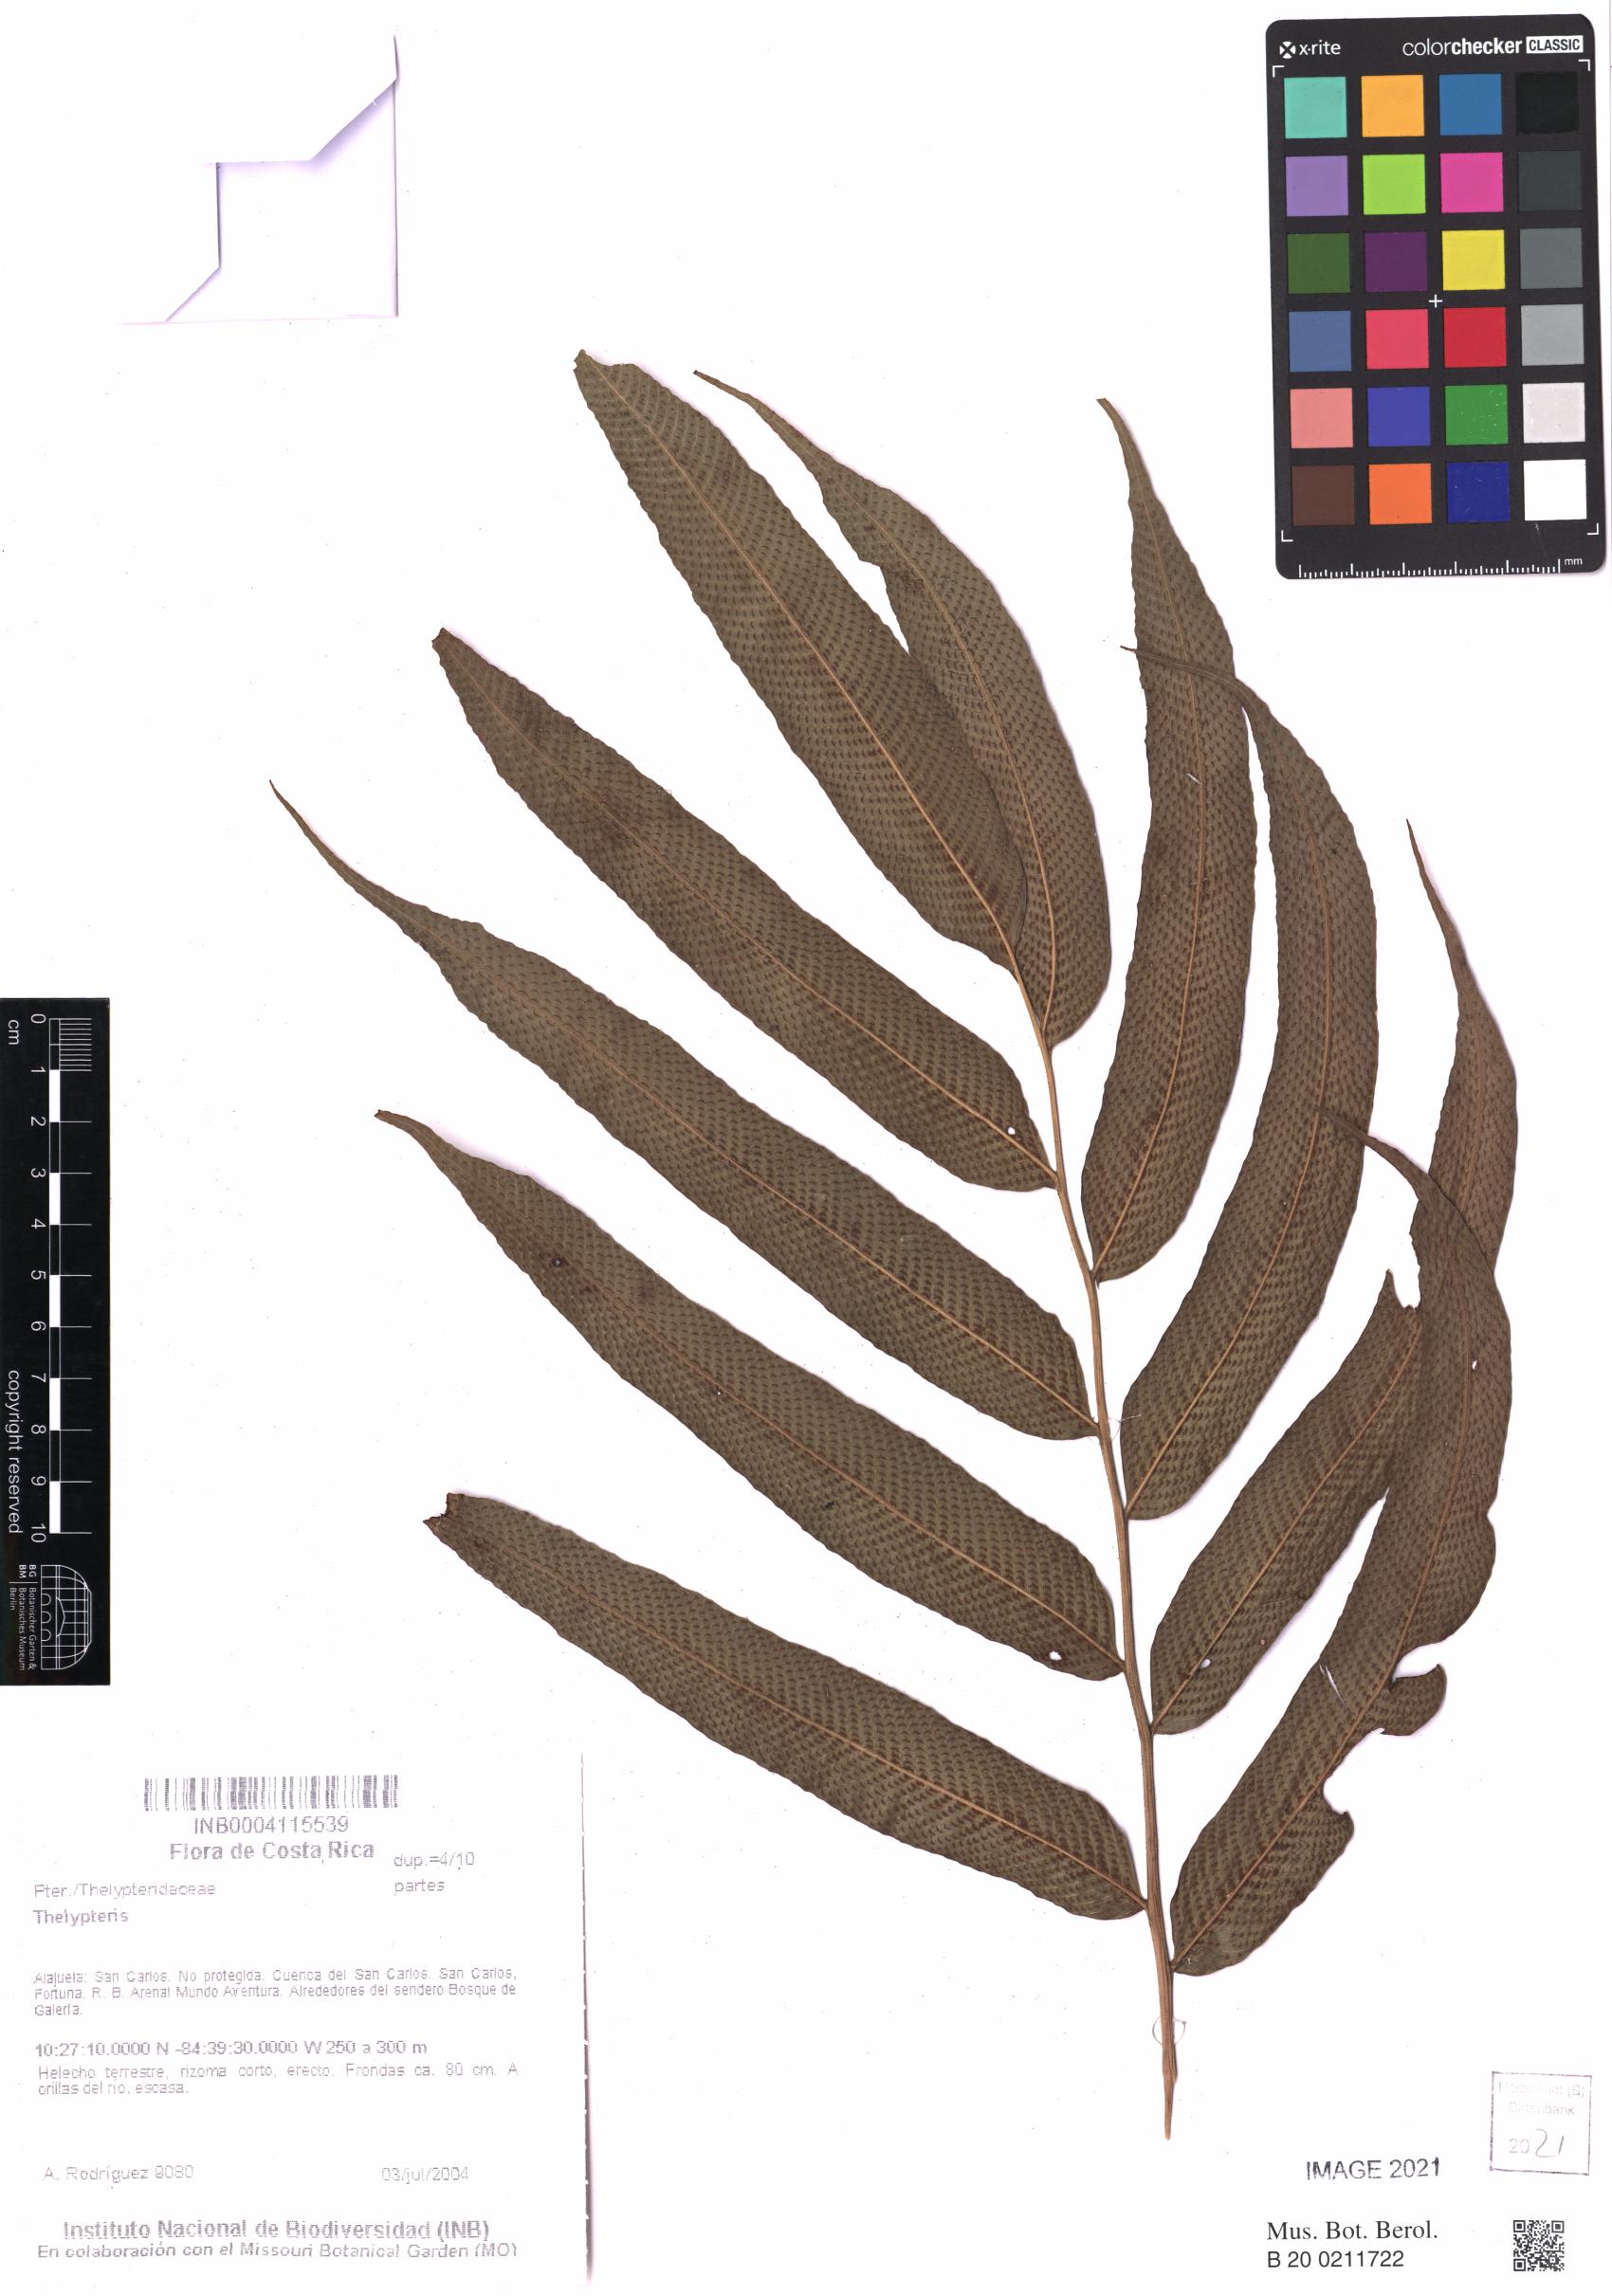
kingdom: Plantae
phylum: Tracheophyta
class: Polypodiopsida
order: Polypodiales
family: Thelypteridaceae
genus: Meniscium
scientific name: Meniscium arborescens
